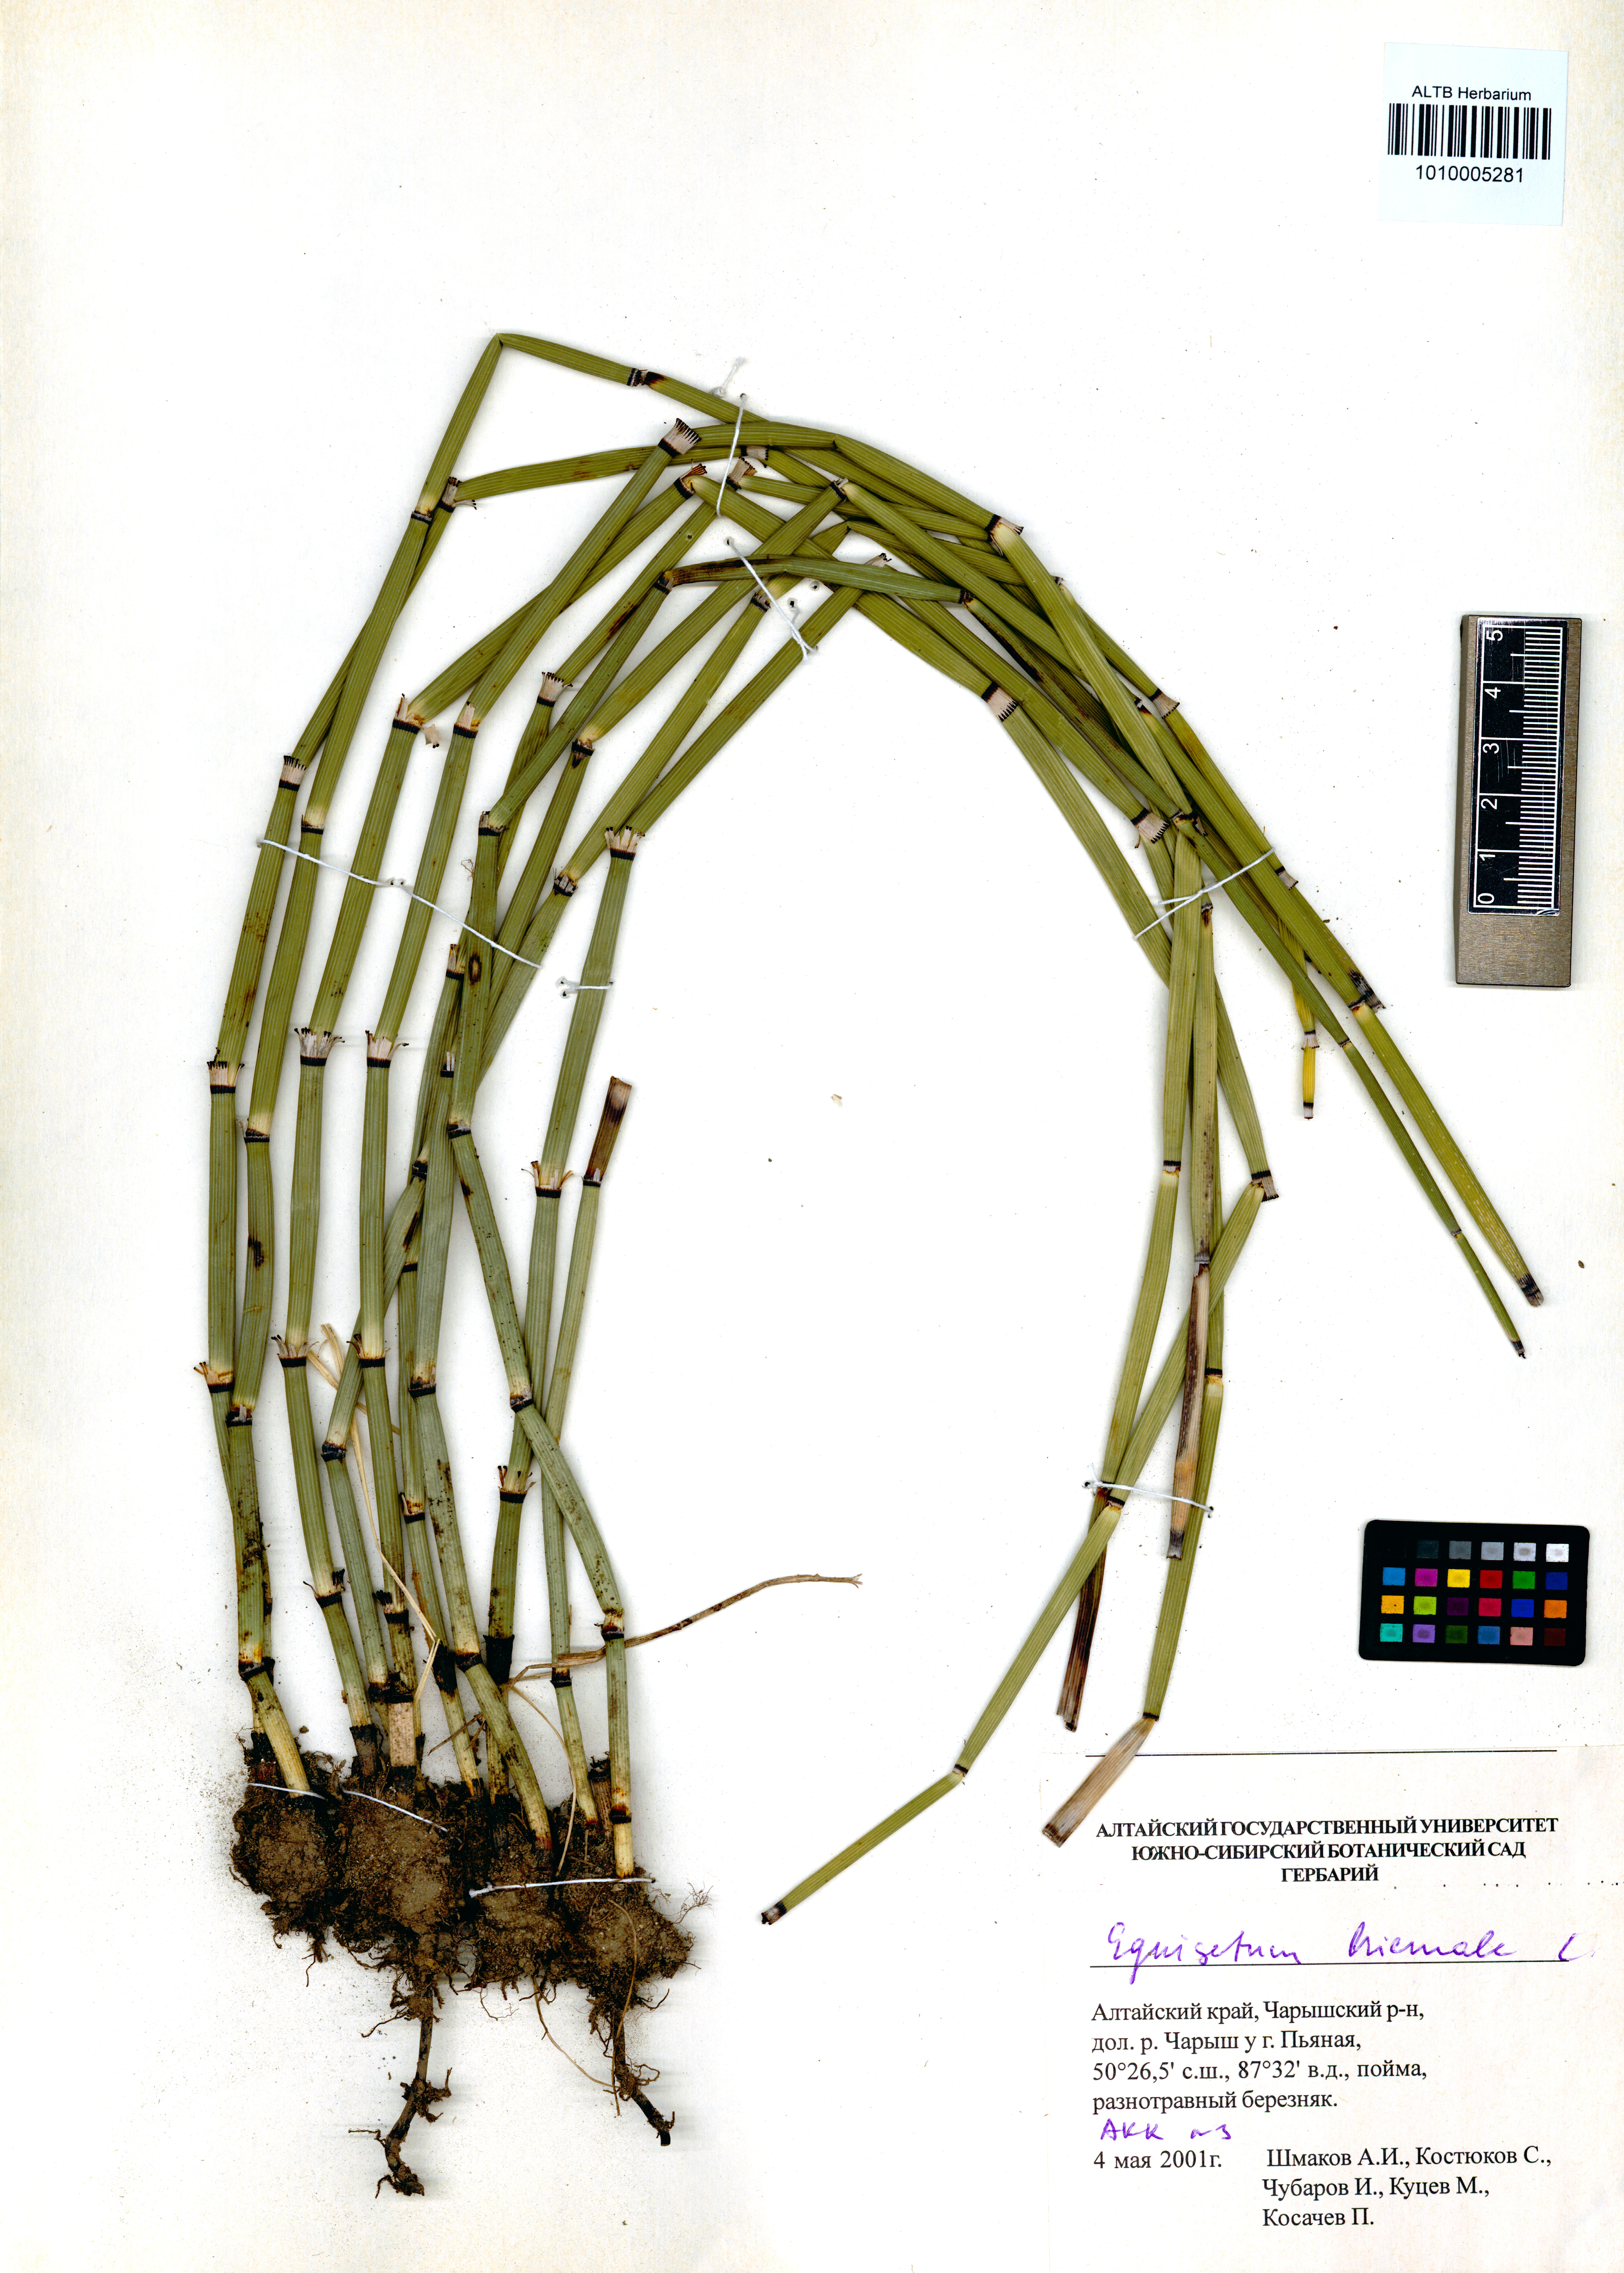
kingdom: Plantae
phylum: Tracheophyta
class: Polypodiopsida
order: Equisetales
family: Equisetaceae
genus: Equisetum
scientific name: Equisetum hyemale
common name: Rough horsetail
